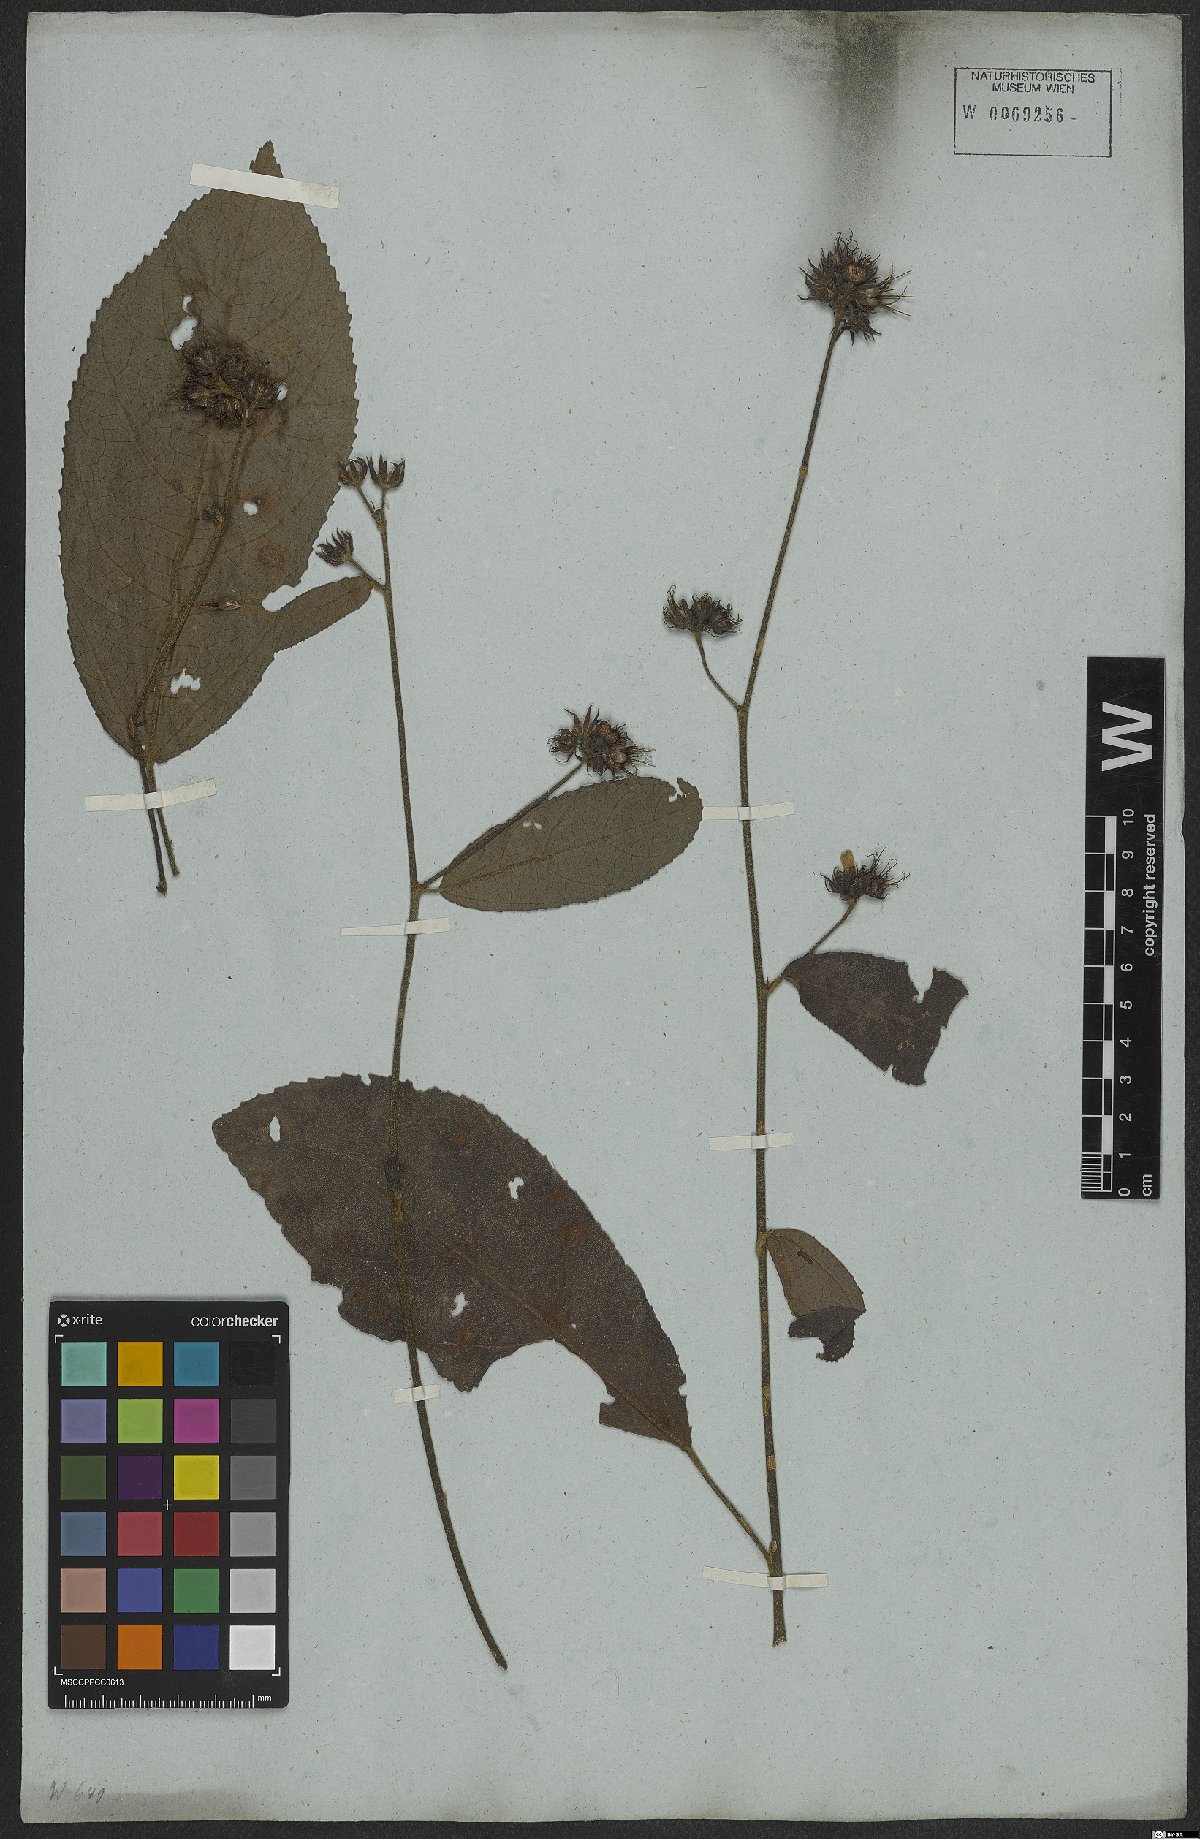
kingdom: Plantae
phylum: Tracheophyta
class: Magnoliopsida
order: Malvales
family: Malvaceae
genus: Pavonia
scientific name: Pavonia schiedeana
